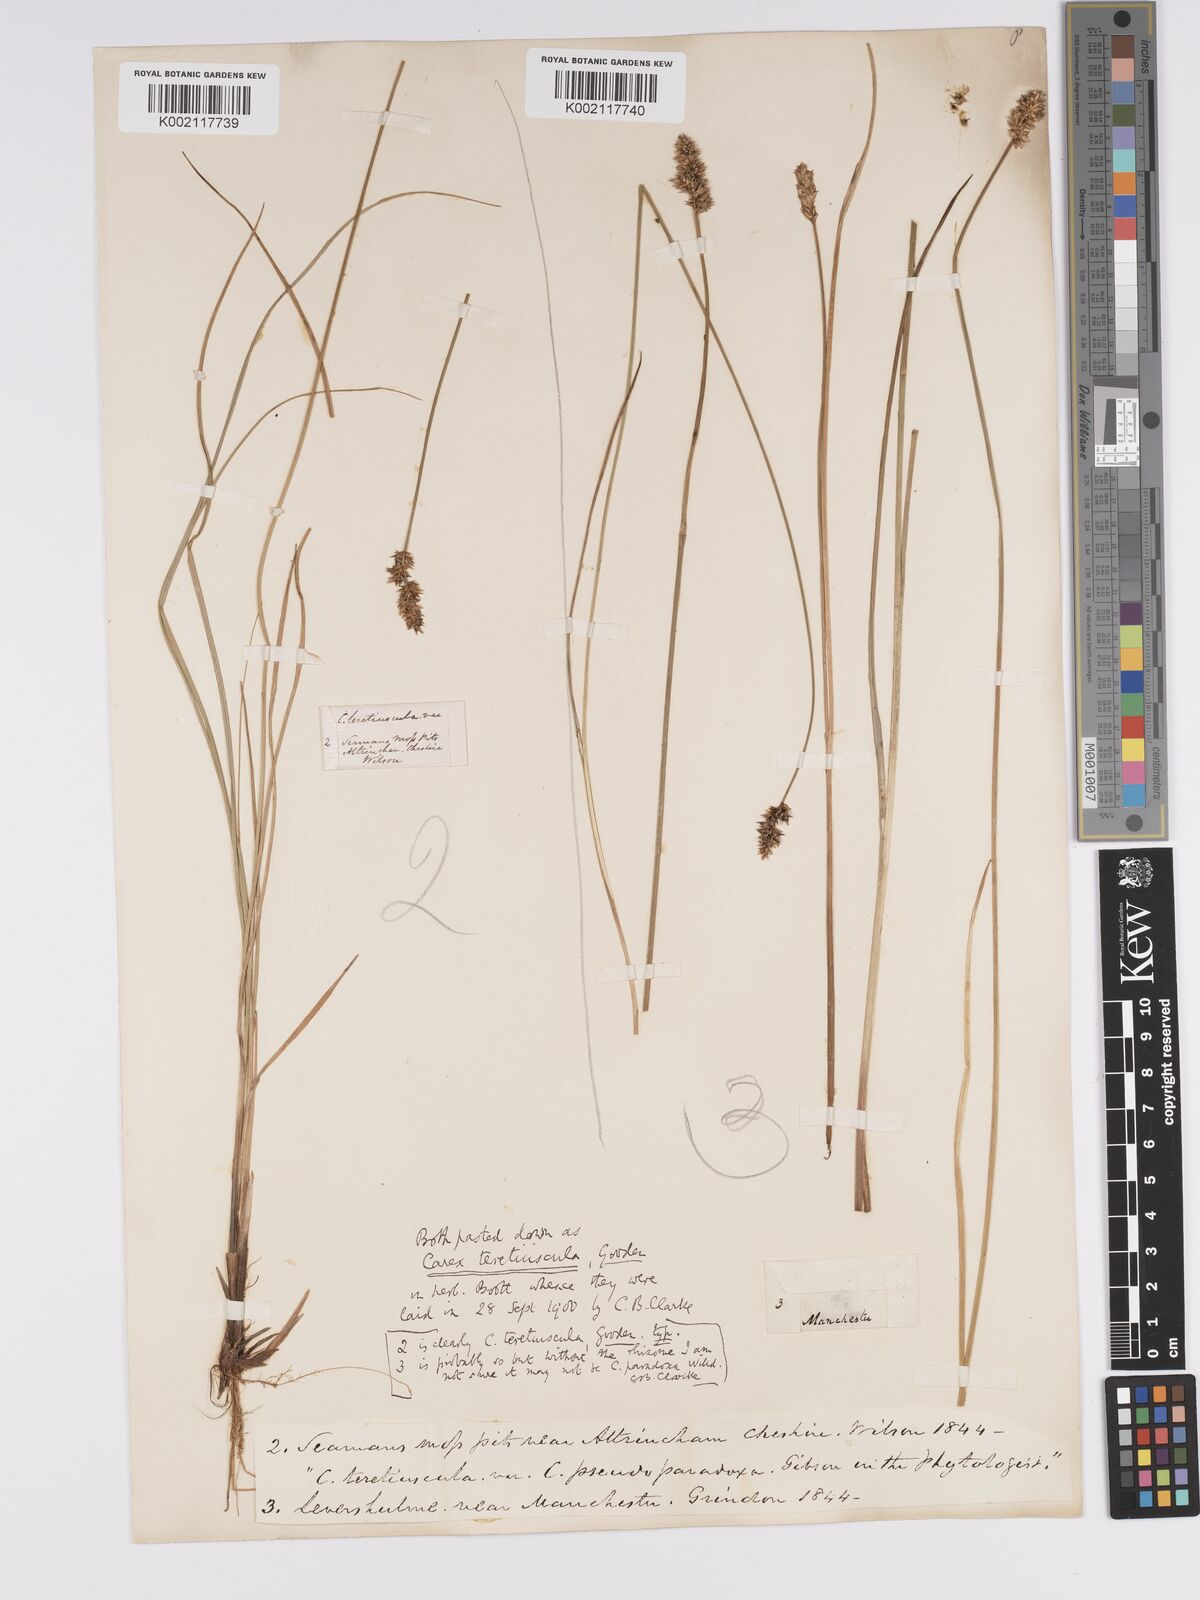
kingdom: Plantae
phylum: Tracheophyta
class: Liliopsida
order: Poales
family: Cyperaceae
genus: Carex
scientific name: Carex diandra
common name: Lesser tussock-sedge
